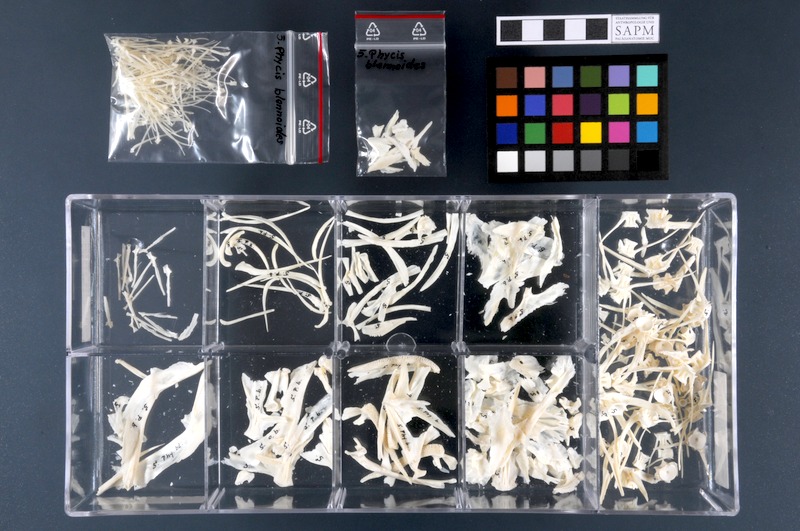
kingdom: Animalia
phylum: Chordata
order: Gadiformes
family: Phycidae
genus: Phycis
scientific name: Phycis blennoides
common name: Forked hake
